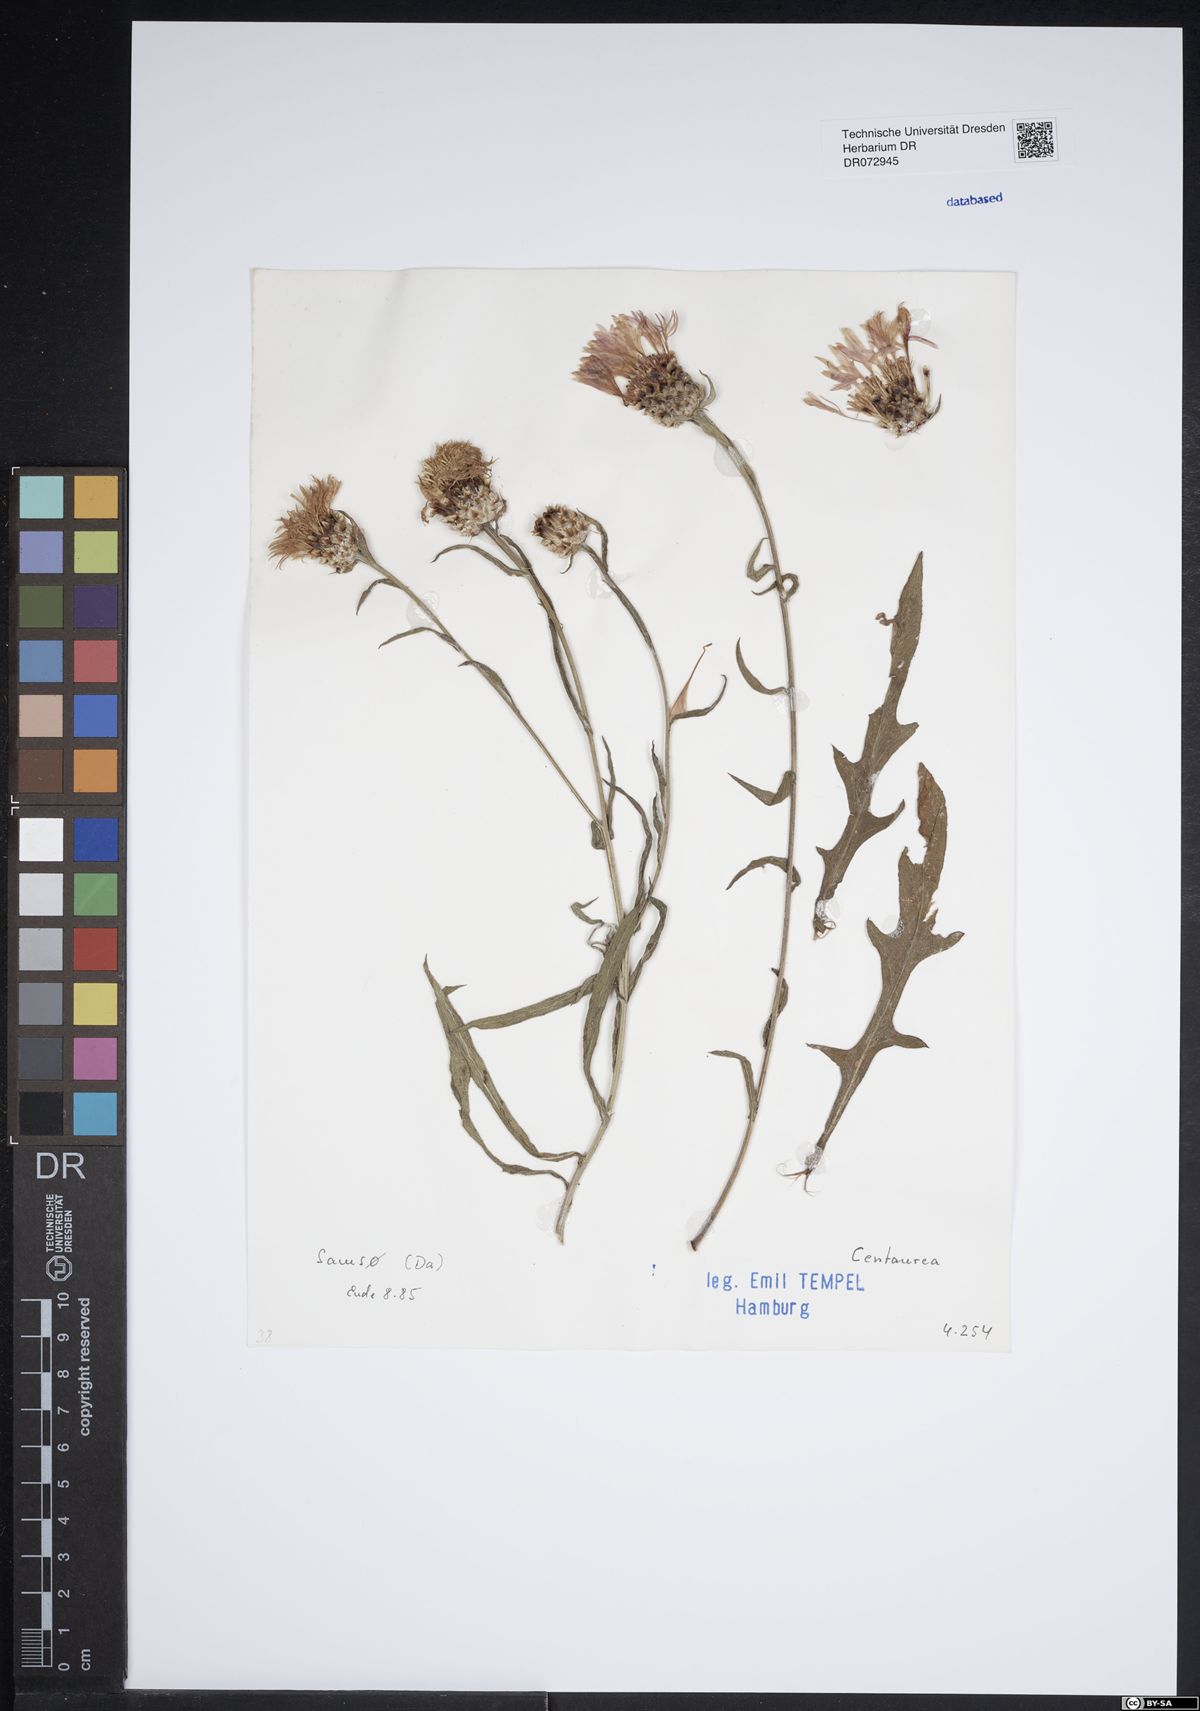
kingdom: Plantae
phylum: Tracheophyta
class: Magnoliopsida
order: Asterales
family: Asteraceae
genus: Centaurea
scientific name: Centaurea
